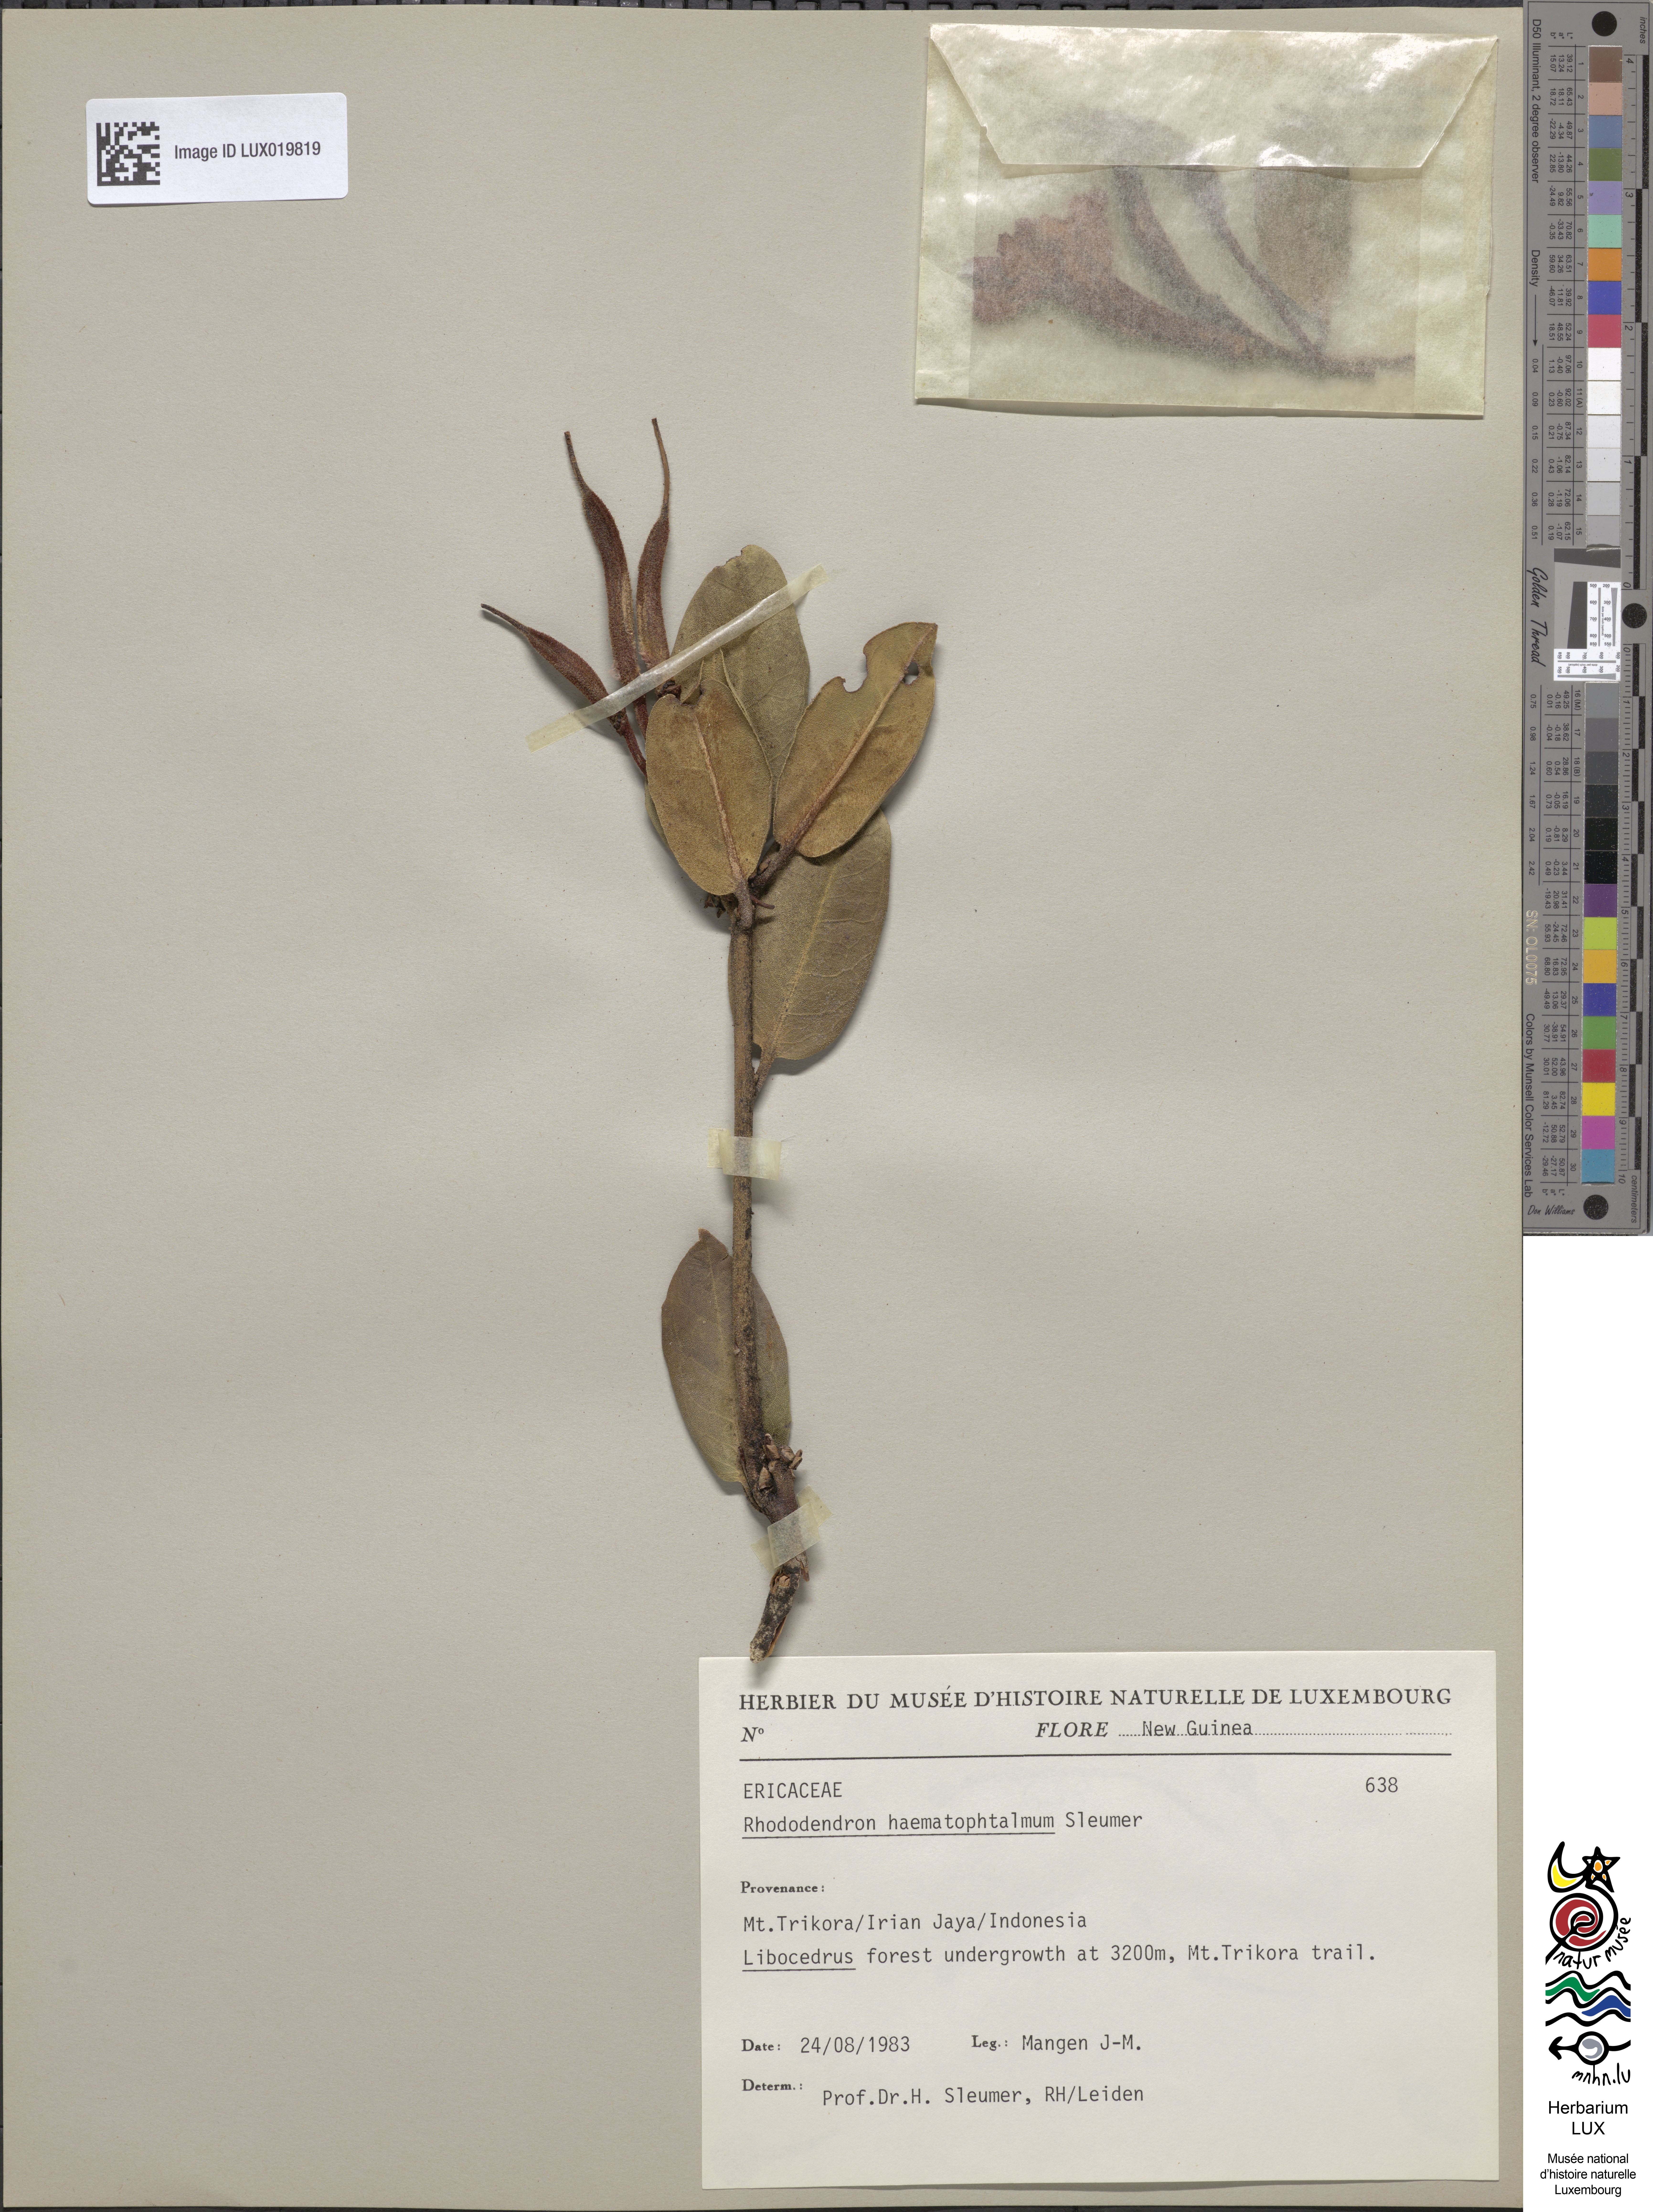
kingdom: Plantae
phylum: Tracheophyta
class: Magnoliopsida
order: Ericales
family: Ericaceae
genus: Rhododendron
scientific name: Rhododendron haematophthalmum
